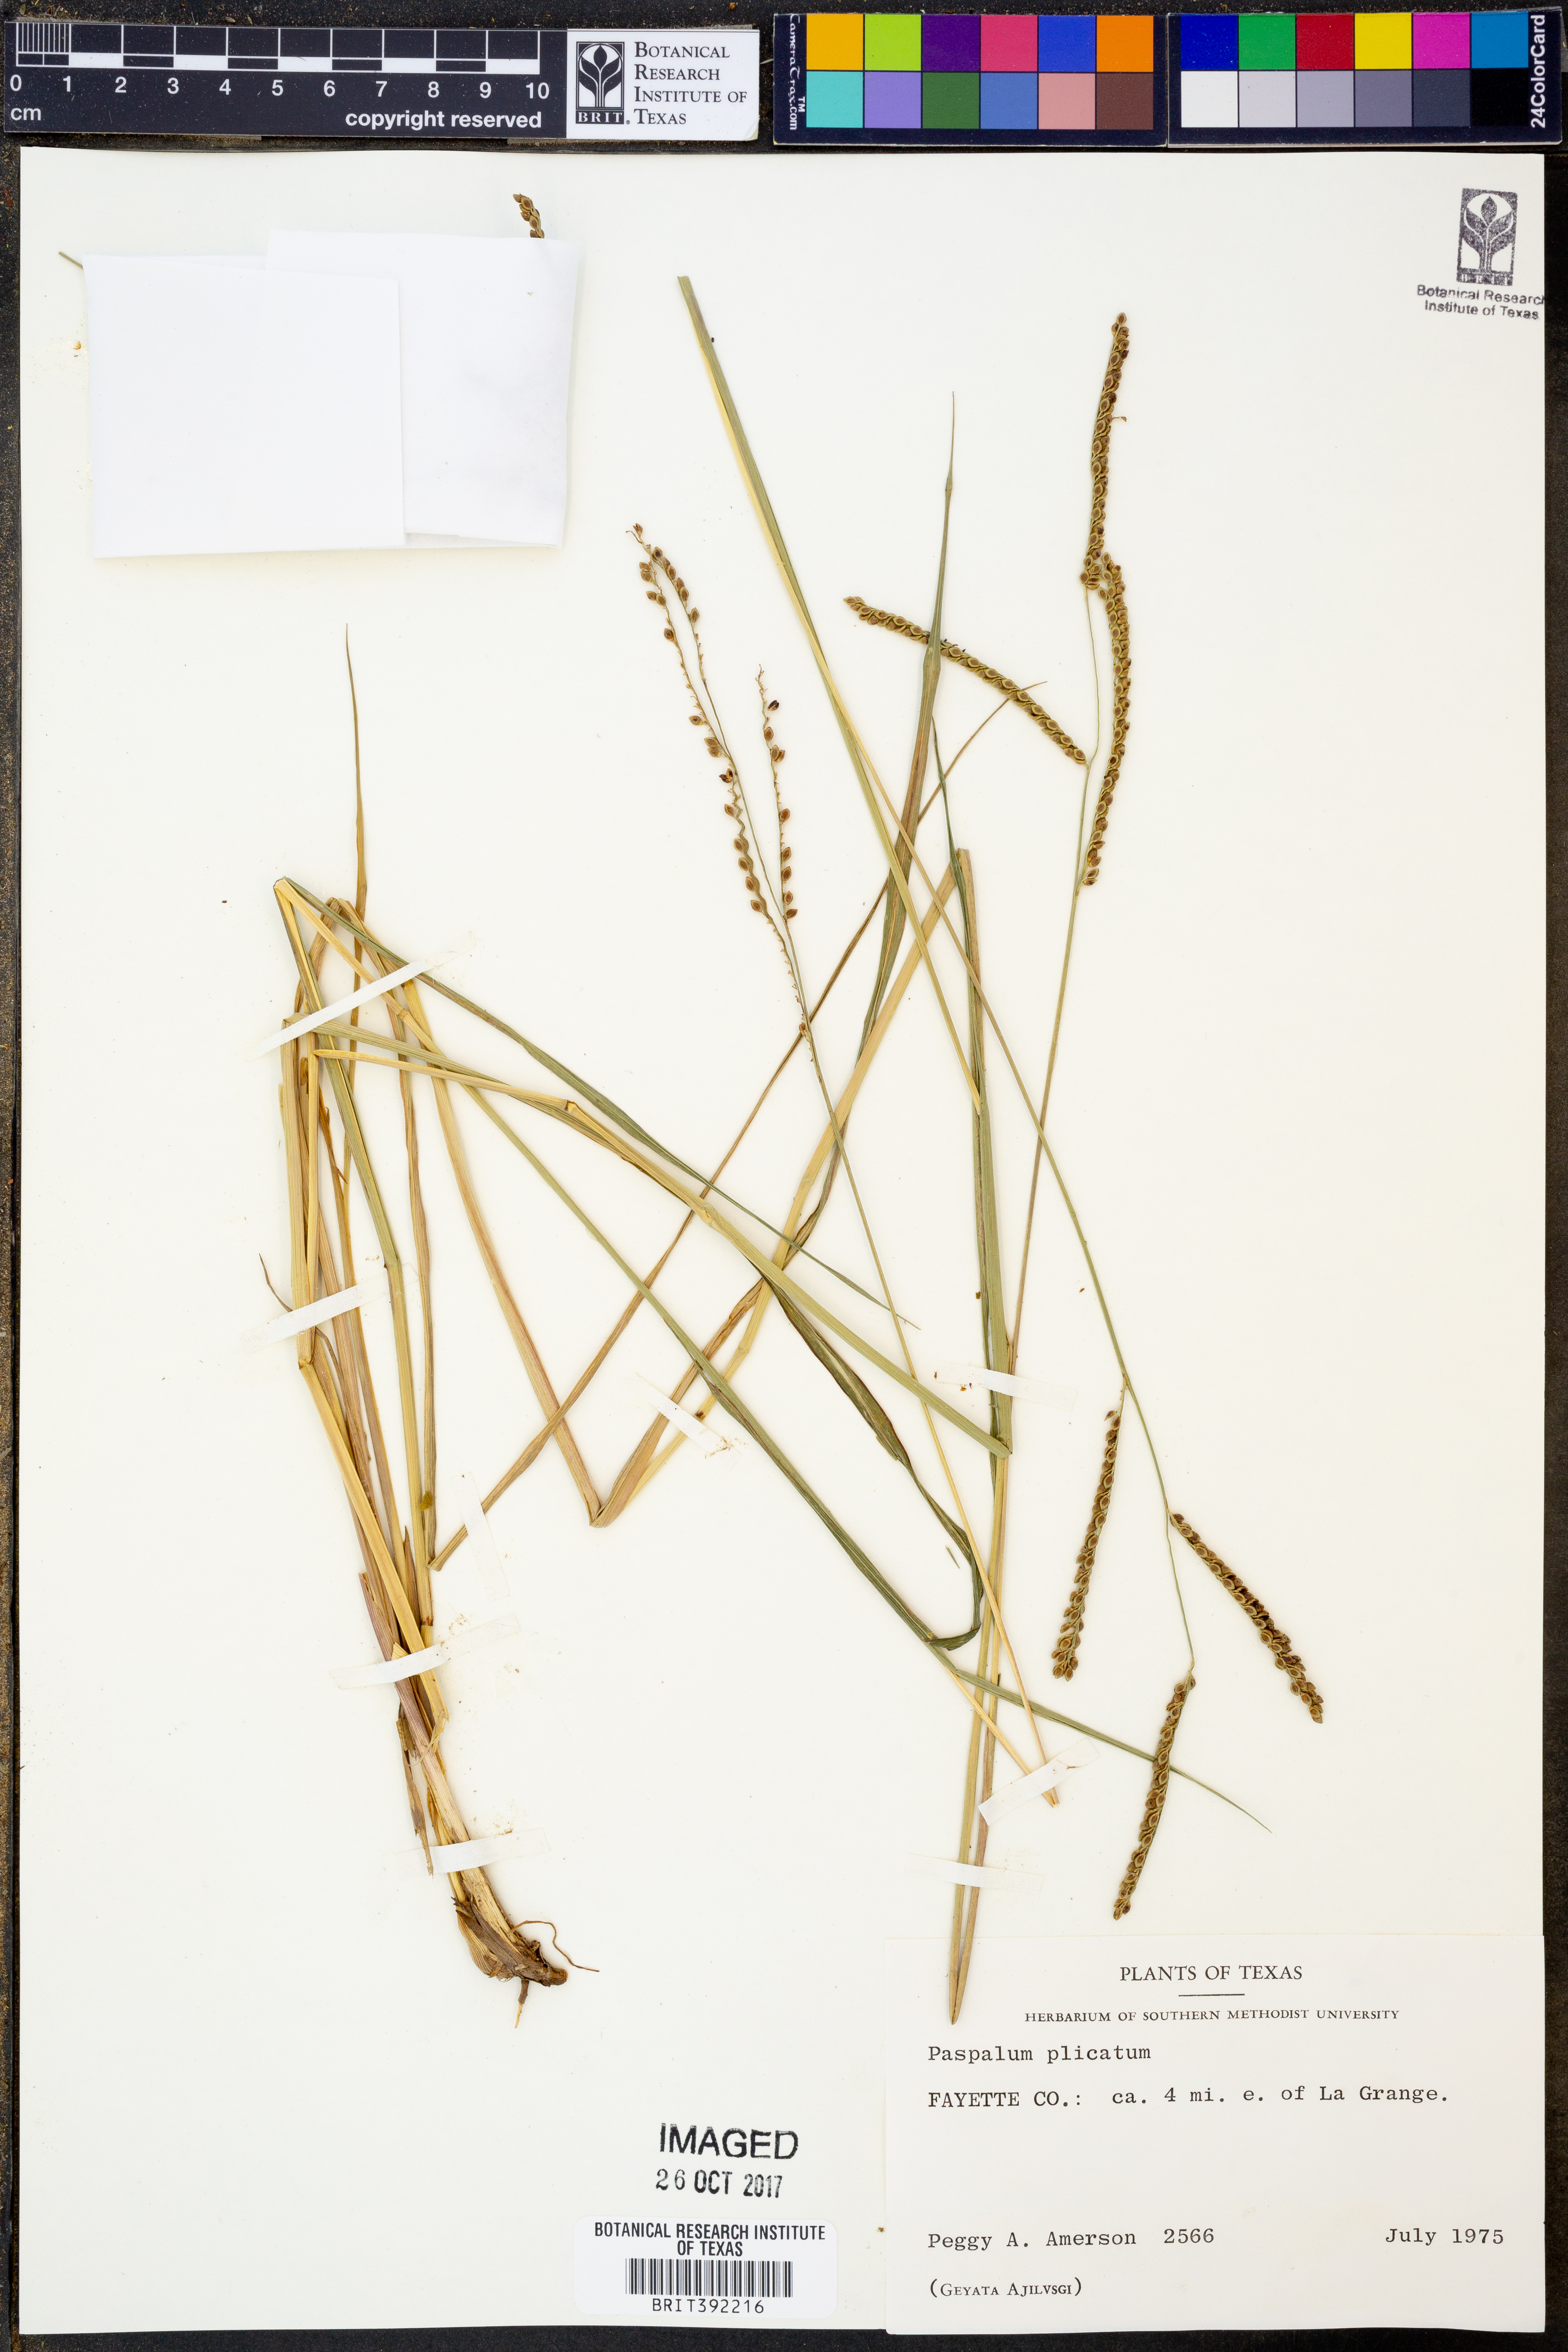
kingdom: Plantae
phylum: Tracheophyta
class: Liliopsida
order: Poales
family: Poaceae
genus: Paspalum
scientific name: Paspalum plicatulum
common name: Top paspalum
